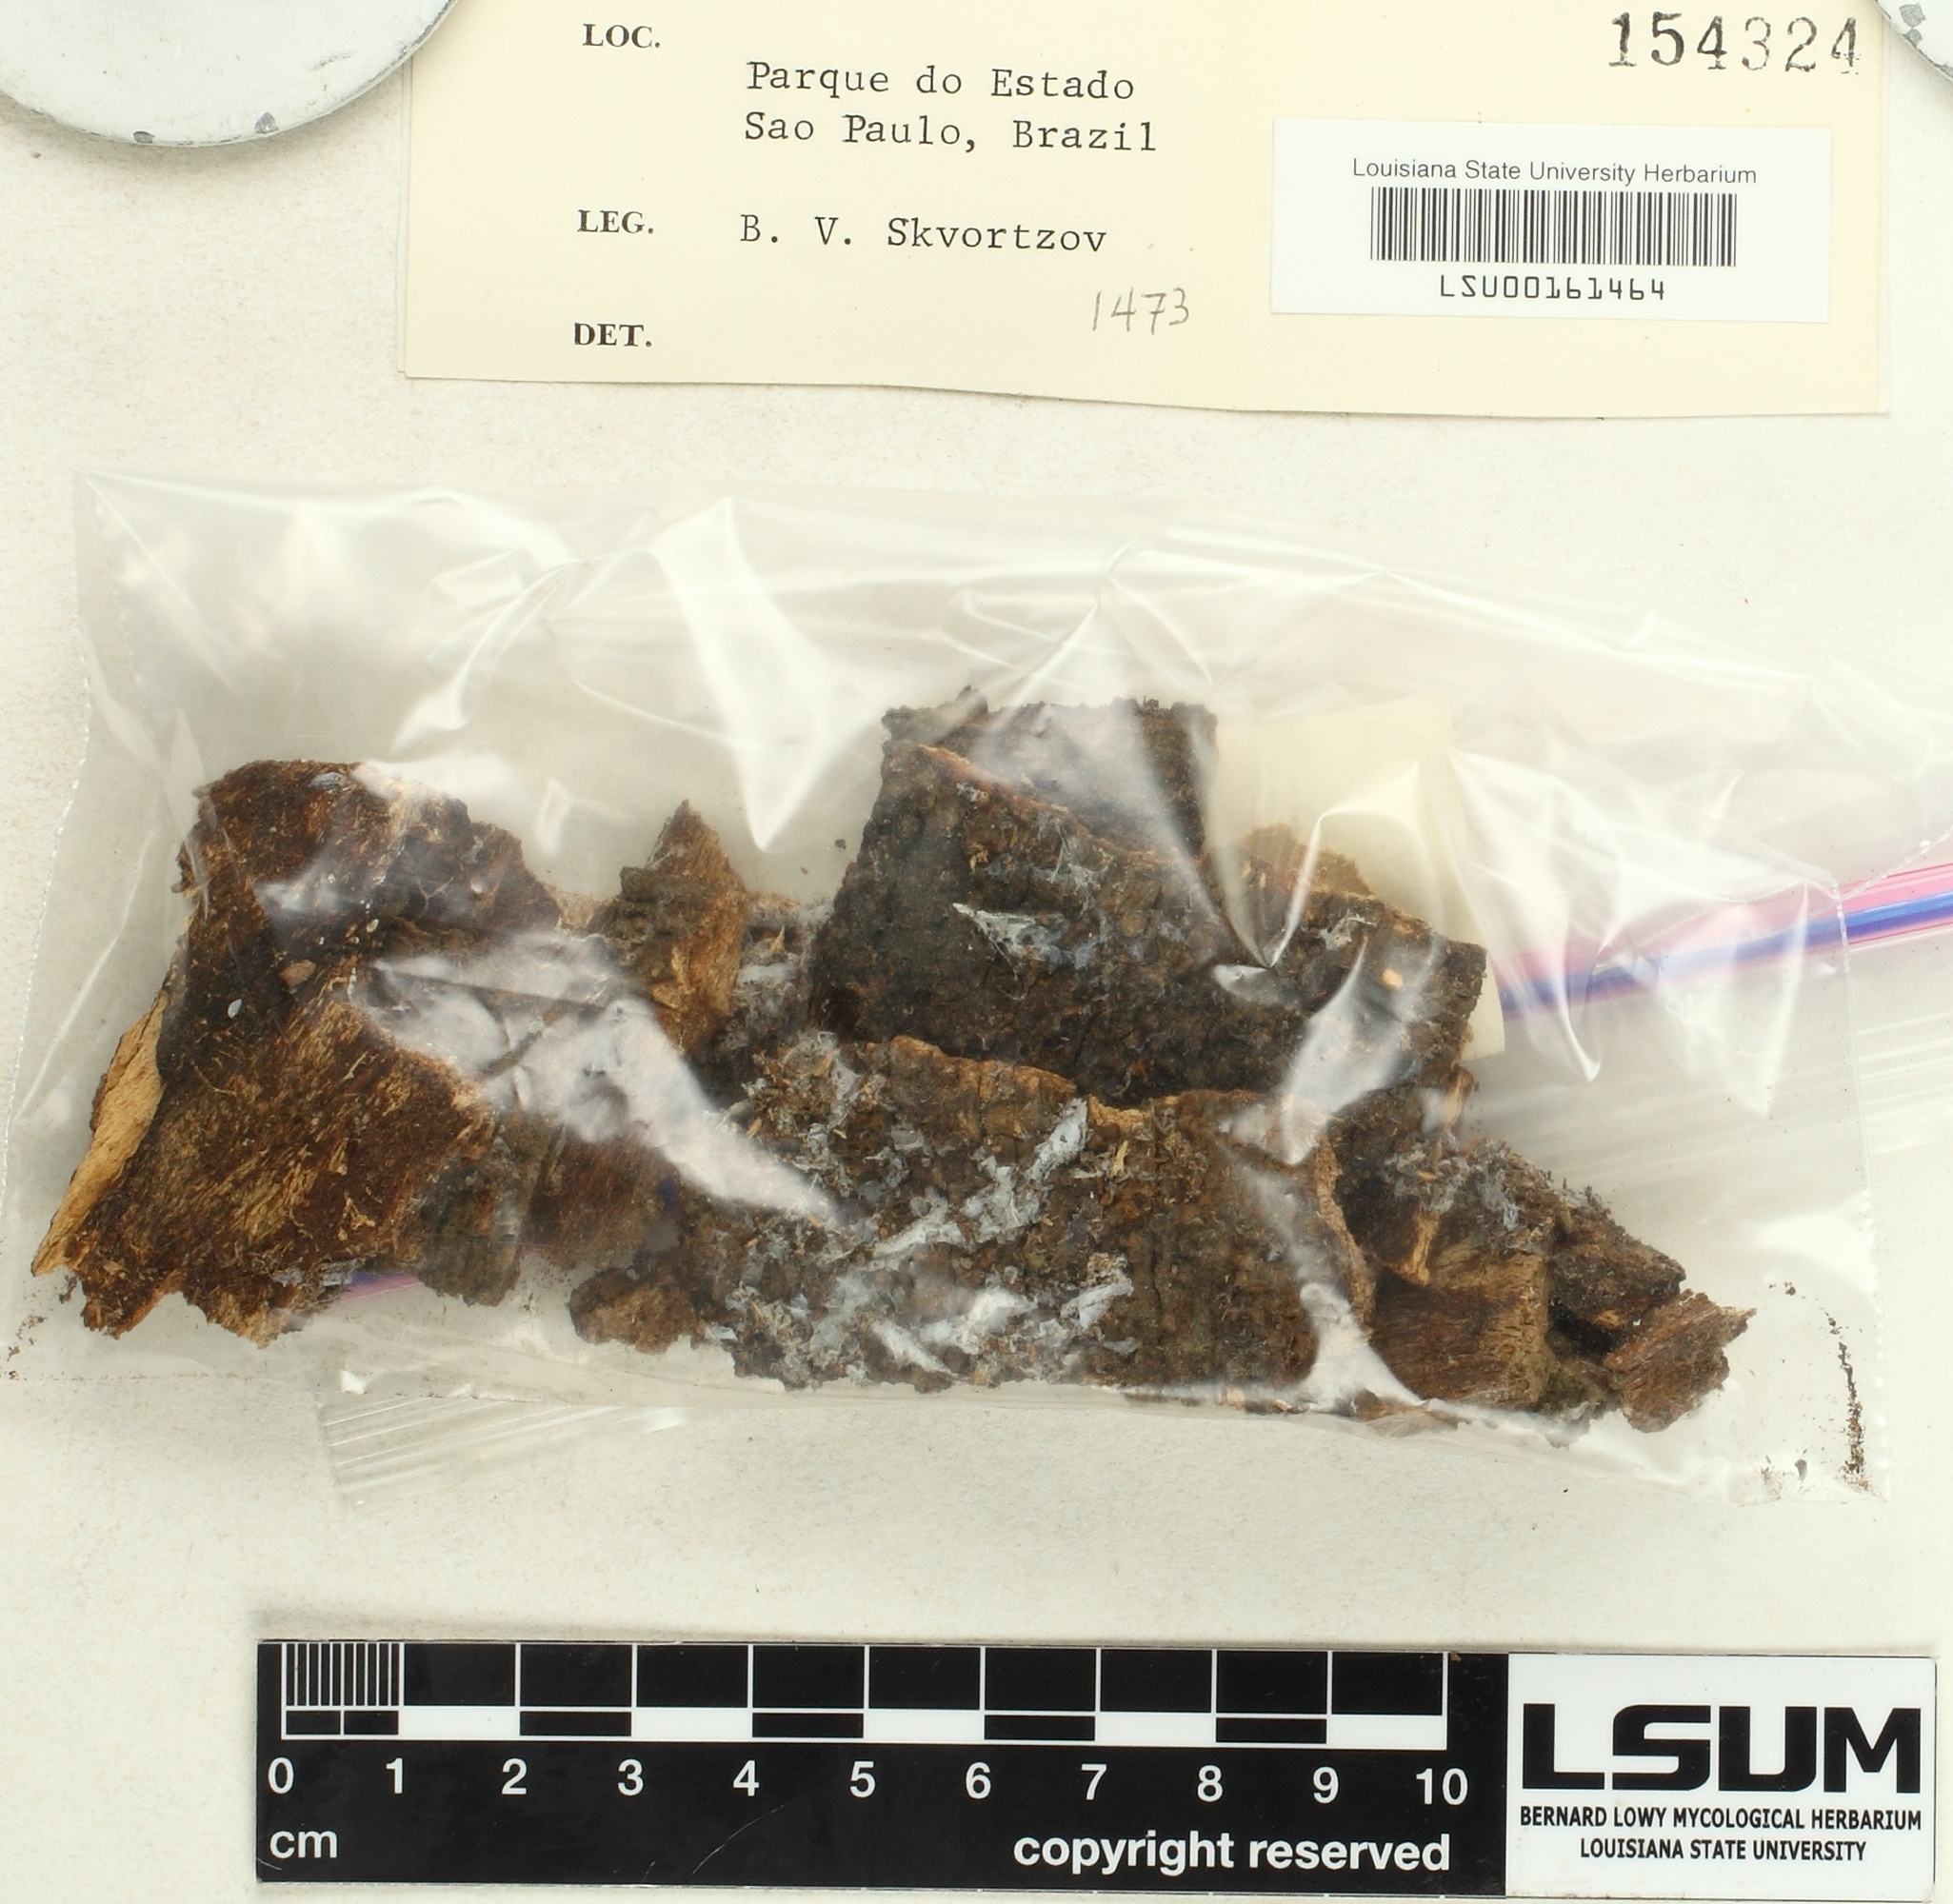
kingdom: Fungi
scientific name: Fungi
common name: Fungi
